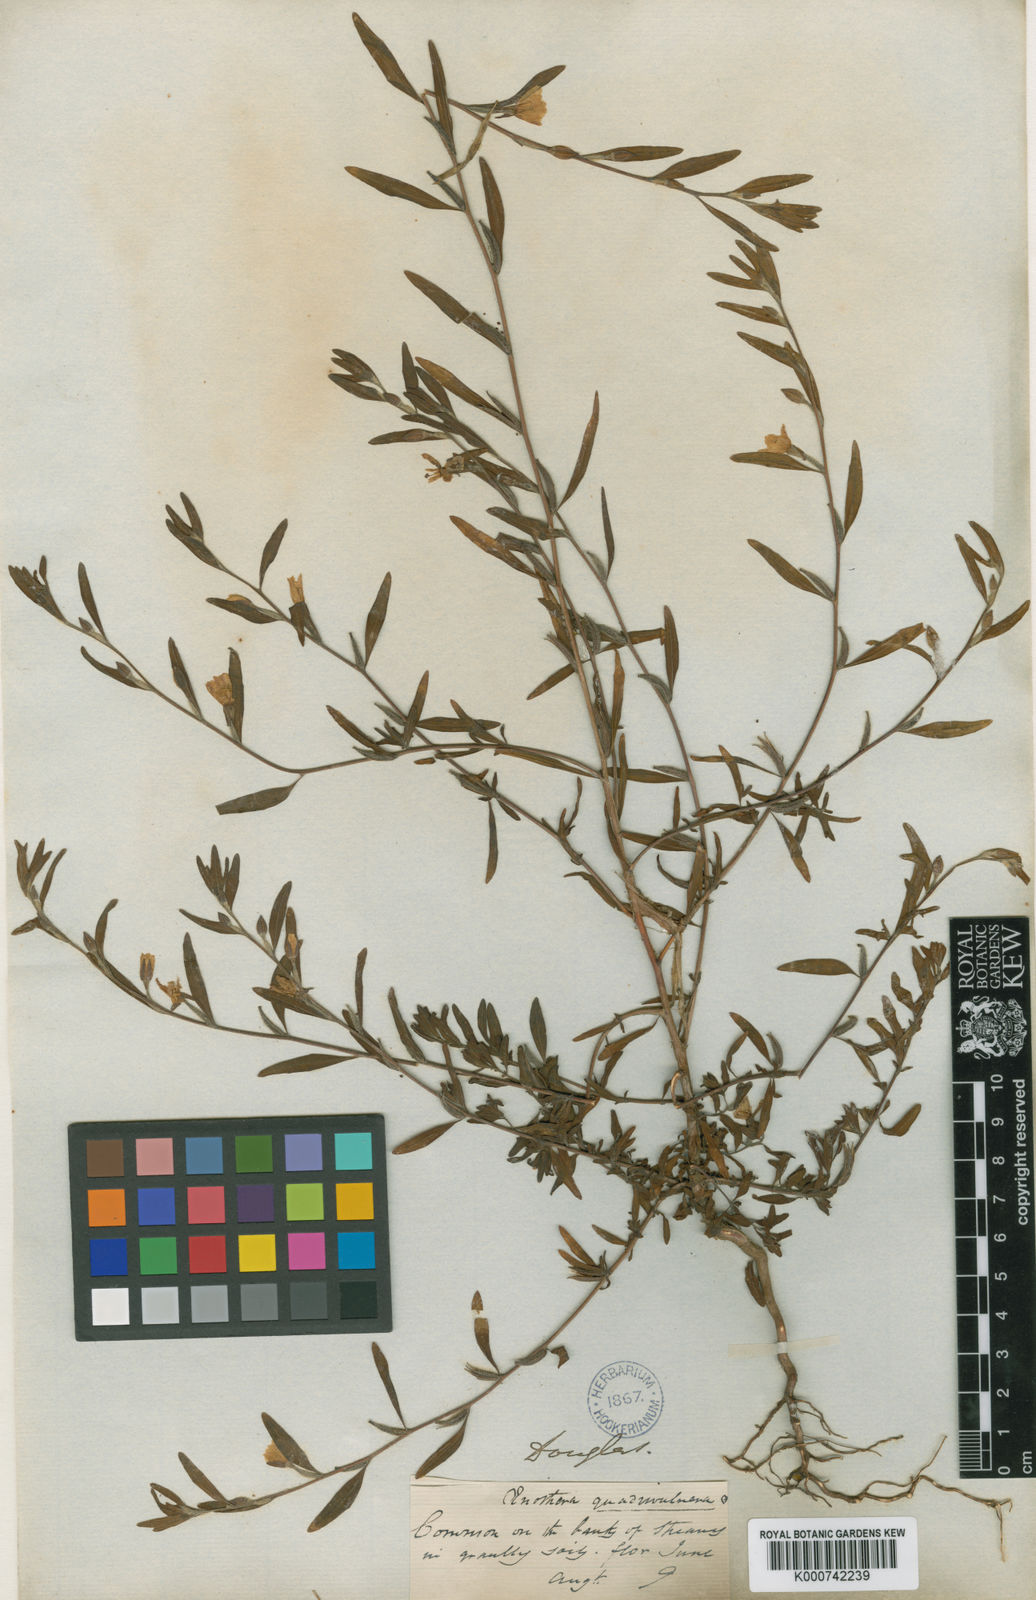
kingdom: Plantae
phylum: Tracheophyta
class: Magnoliopsida
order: Myrtales
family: Onagraceae
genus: Clarkia
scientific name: Clarkia purpurea
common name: Purple clarkia
